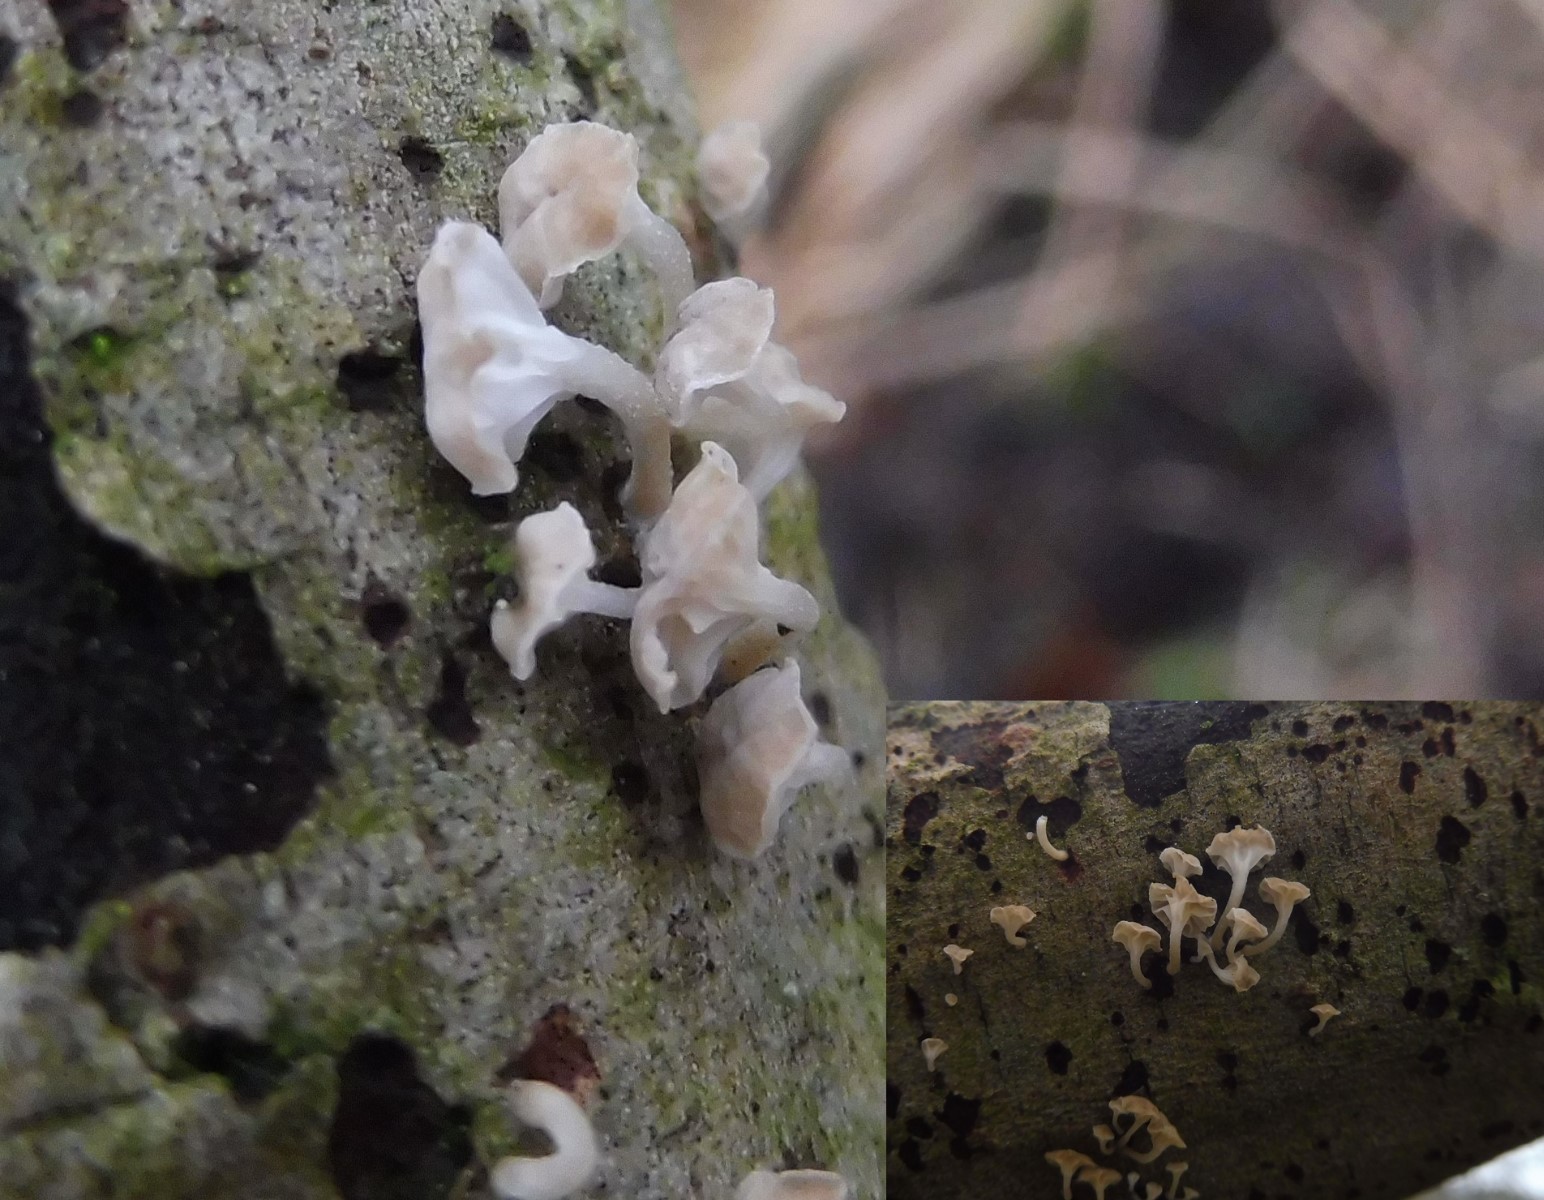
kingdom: Fungi
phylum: Basidiomycota
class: Agaricomycetes
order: Agaricales
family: Porotheleaceae
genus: Phloeomana
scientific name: Phloeomana speirea
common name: kvist-huesvamp
